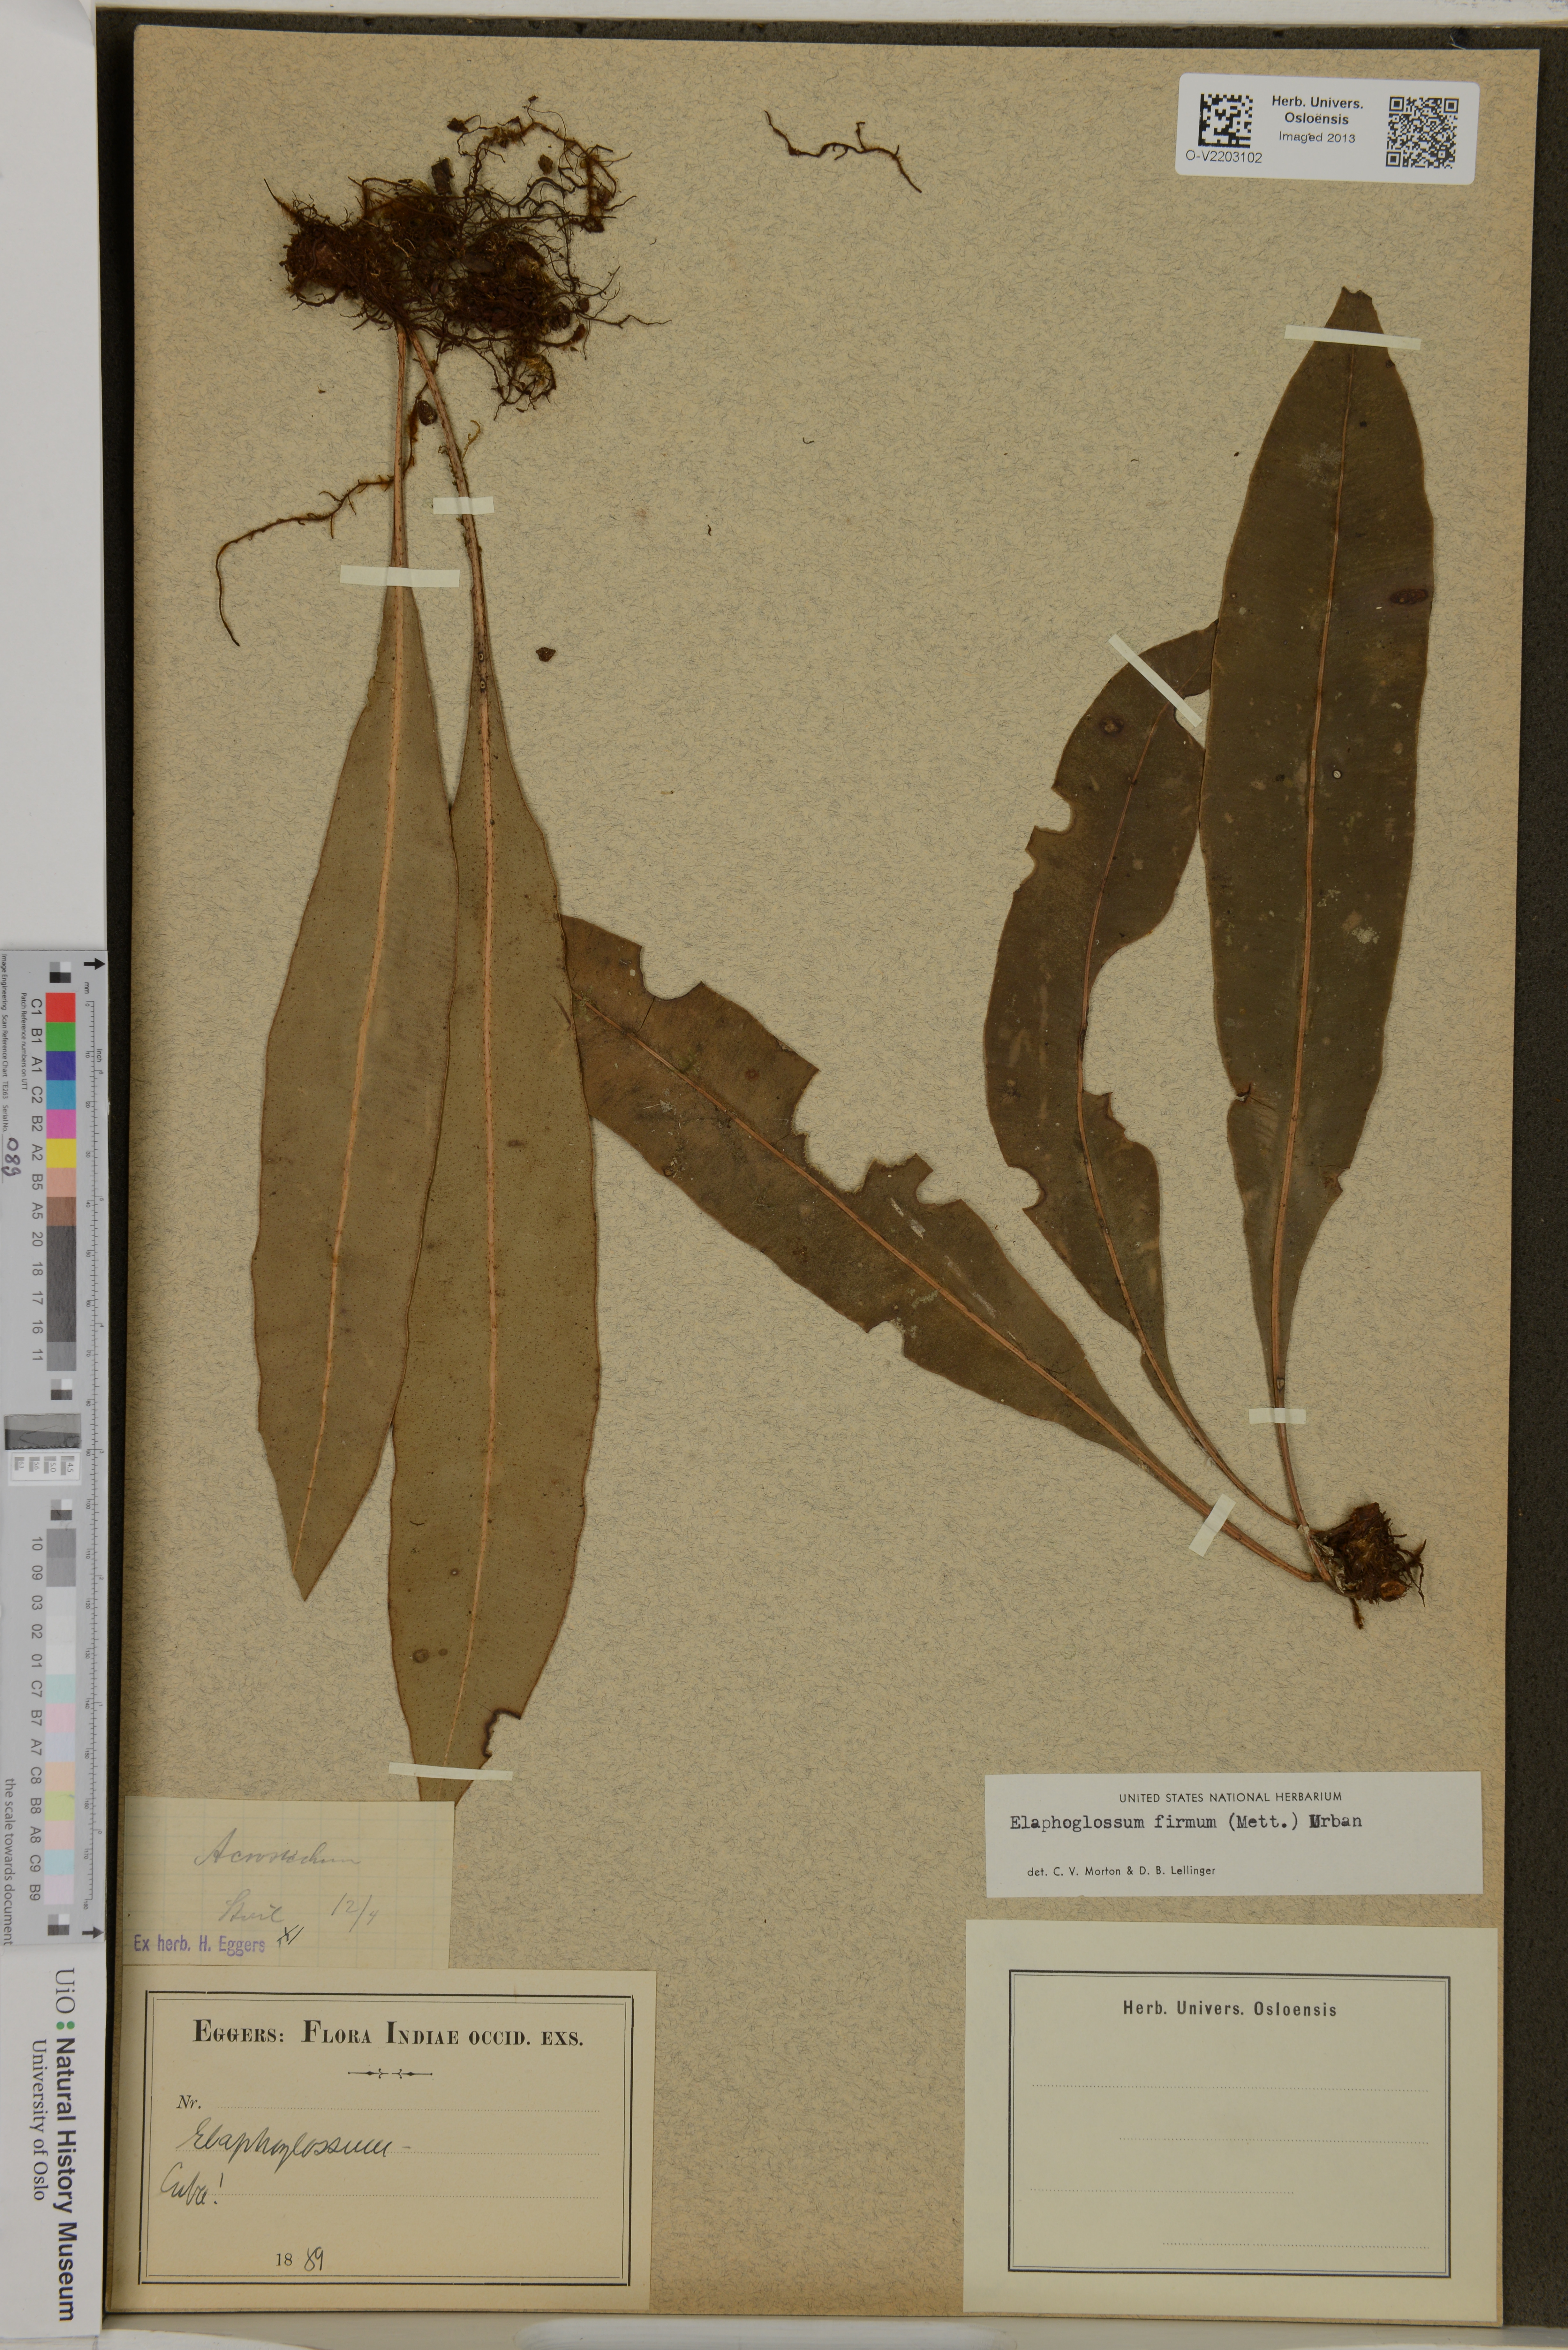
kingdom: Plantae
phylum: Tracheophyta
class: Polypodiopsida
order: Polypodiales
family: Dryopteridaceae
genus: Elaphoglossum
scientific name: Elaphoglossum hoffmannii
